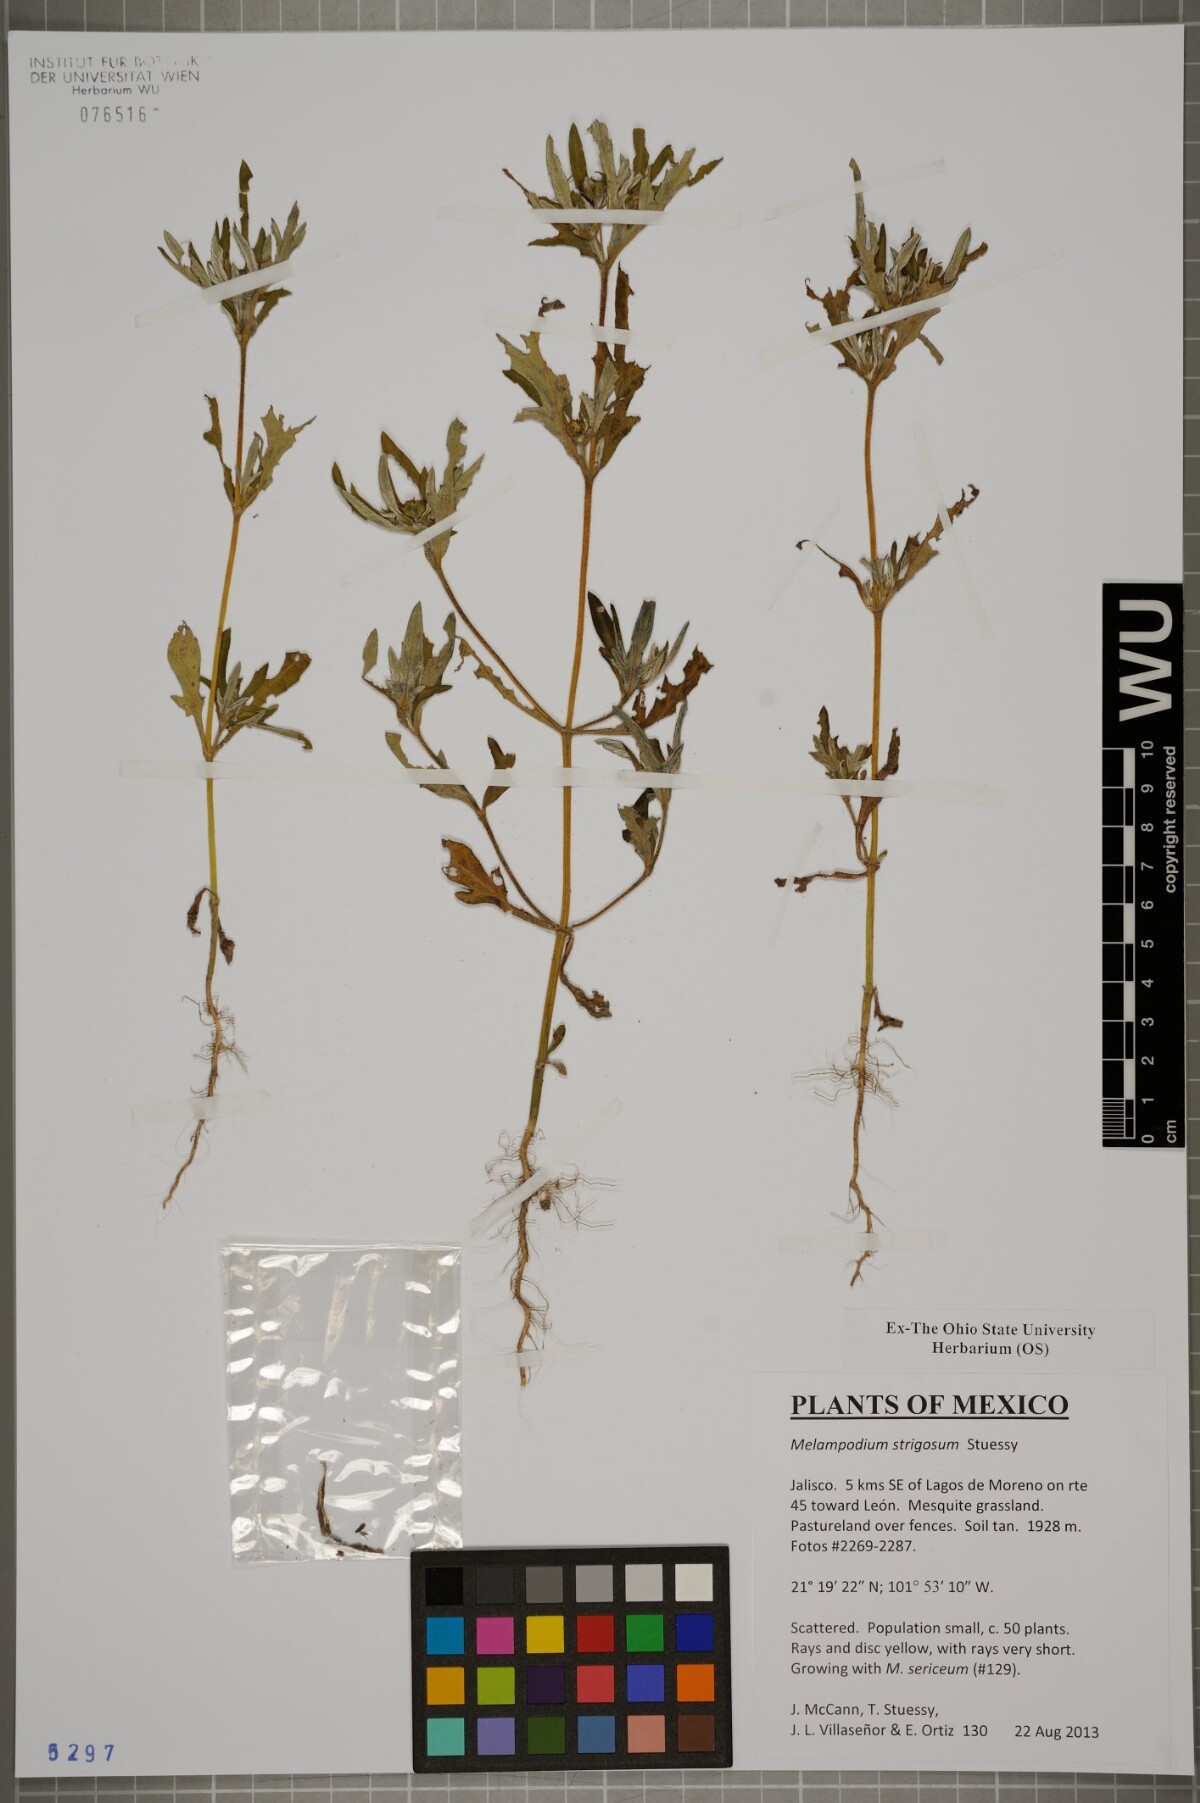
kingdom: Plantae
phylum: Tracheophyta
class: Magnoliopsida
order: Asterales
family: Asteraceae
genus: Melampodium
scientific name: Melampodium strigosum
